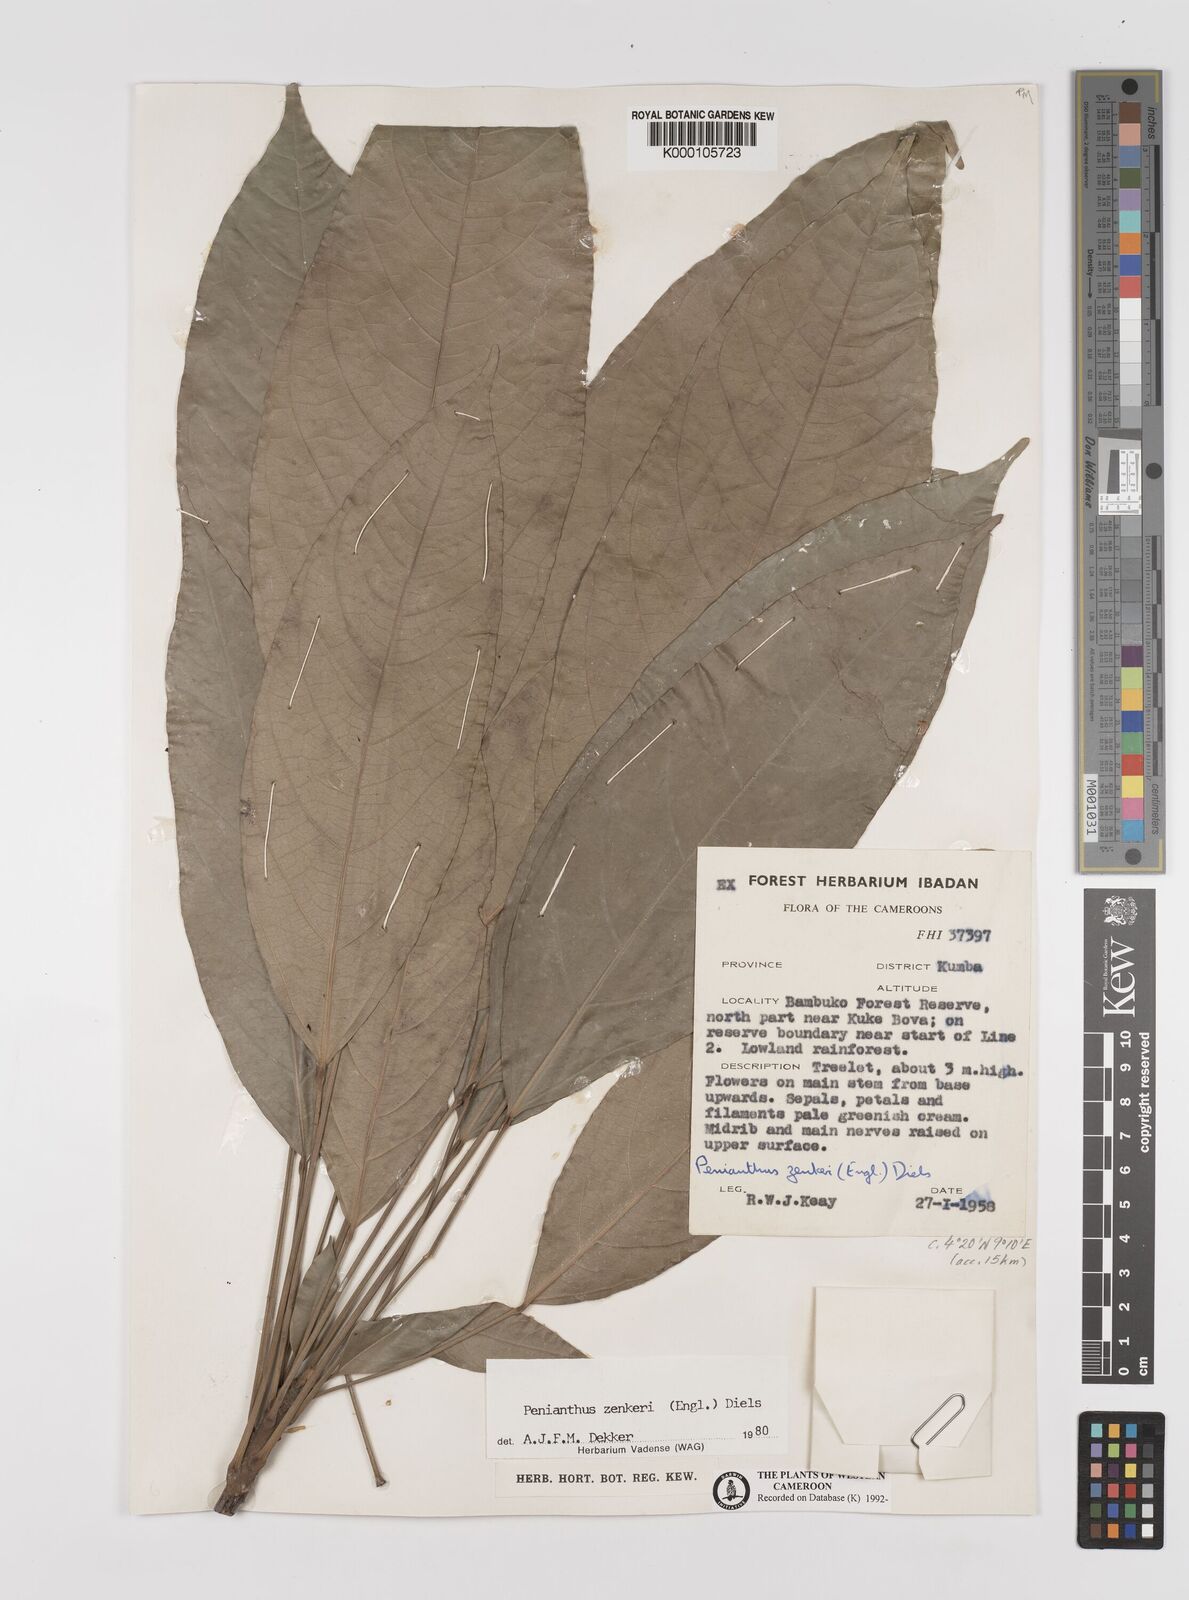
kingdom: Plantae
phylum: Tracheophyta
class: Magnoliopsida
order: Ranunculales
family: Menispermaceae
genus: Penianthus
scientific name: Penianthus zenkeri
